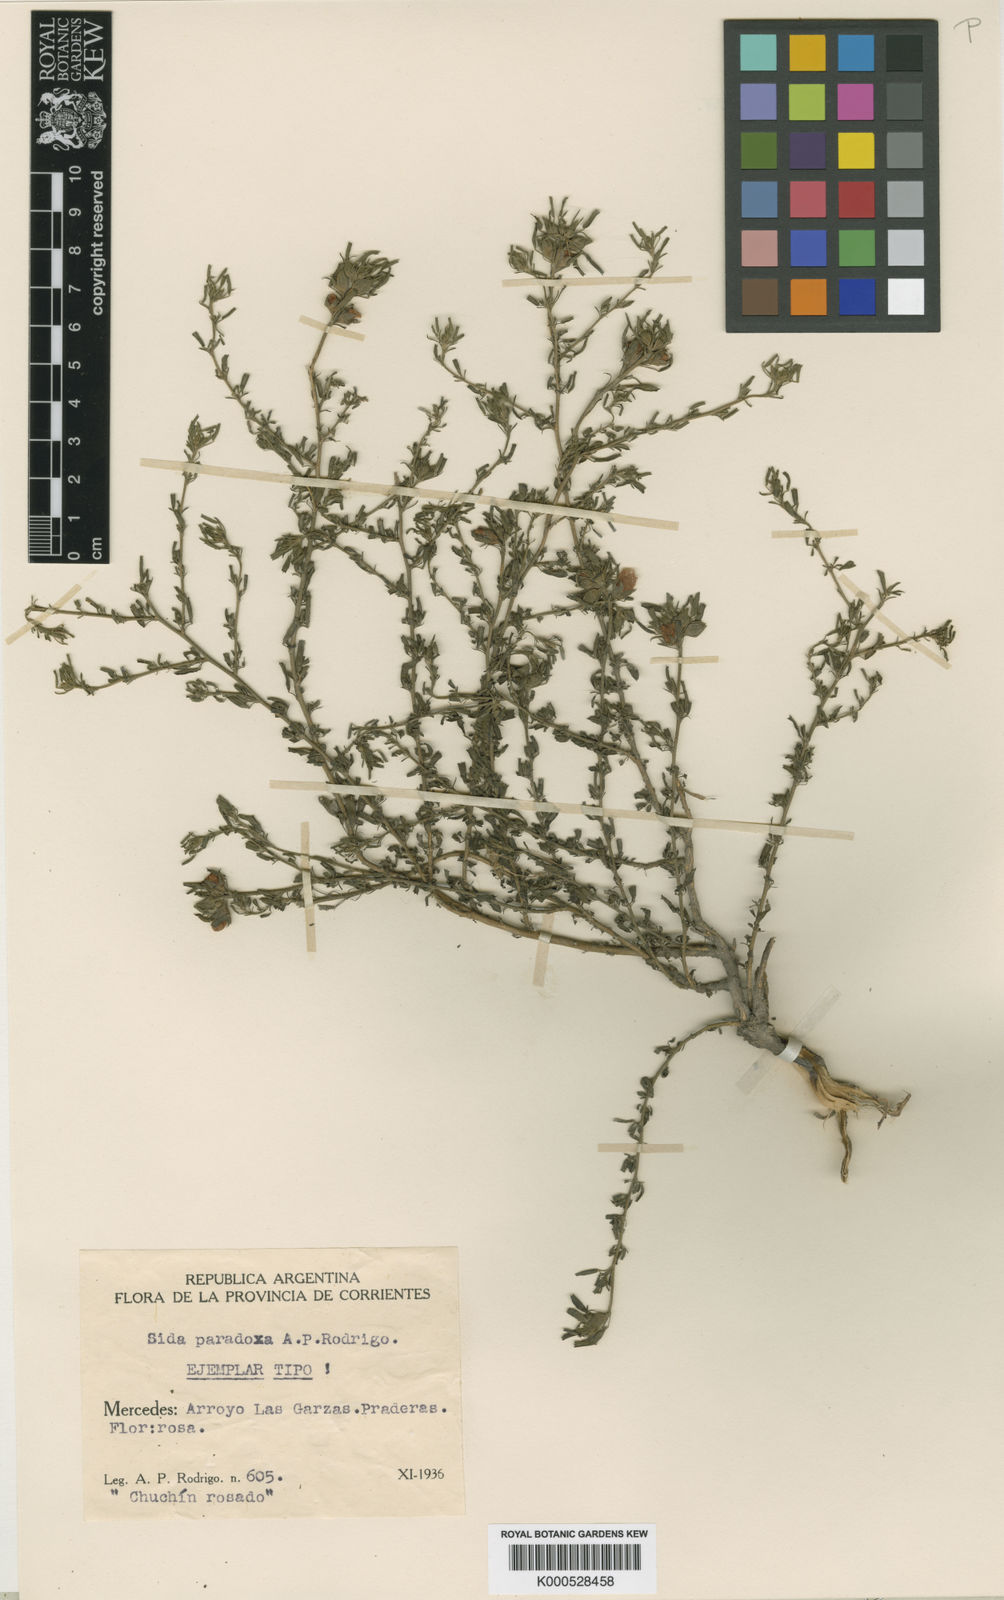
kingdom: Plantae
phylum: Tracheophyta
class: Magnoliopsida
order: Malvales
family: Malvaceae
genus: Sida
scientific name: Sida paradoxa
